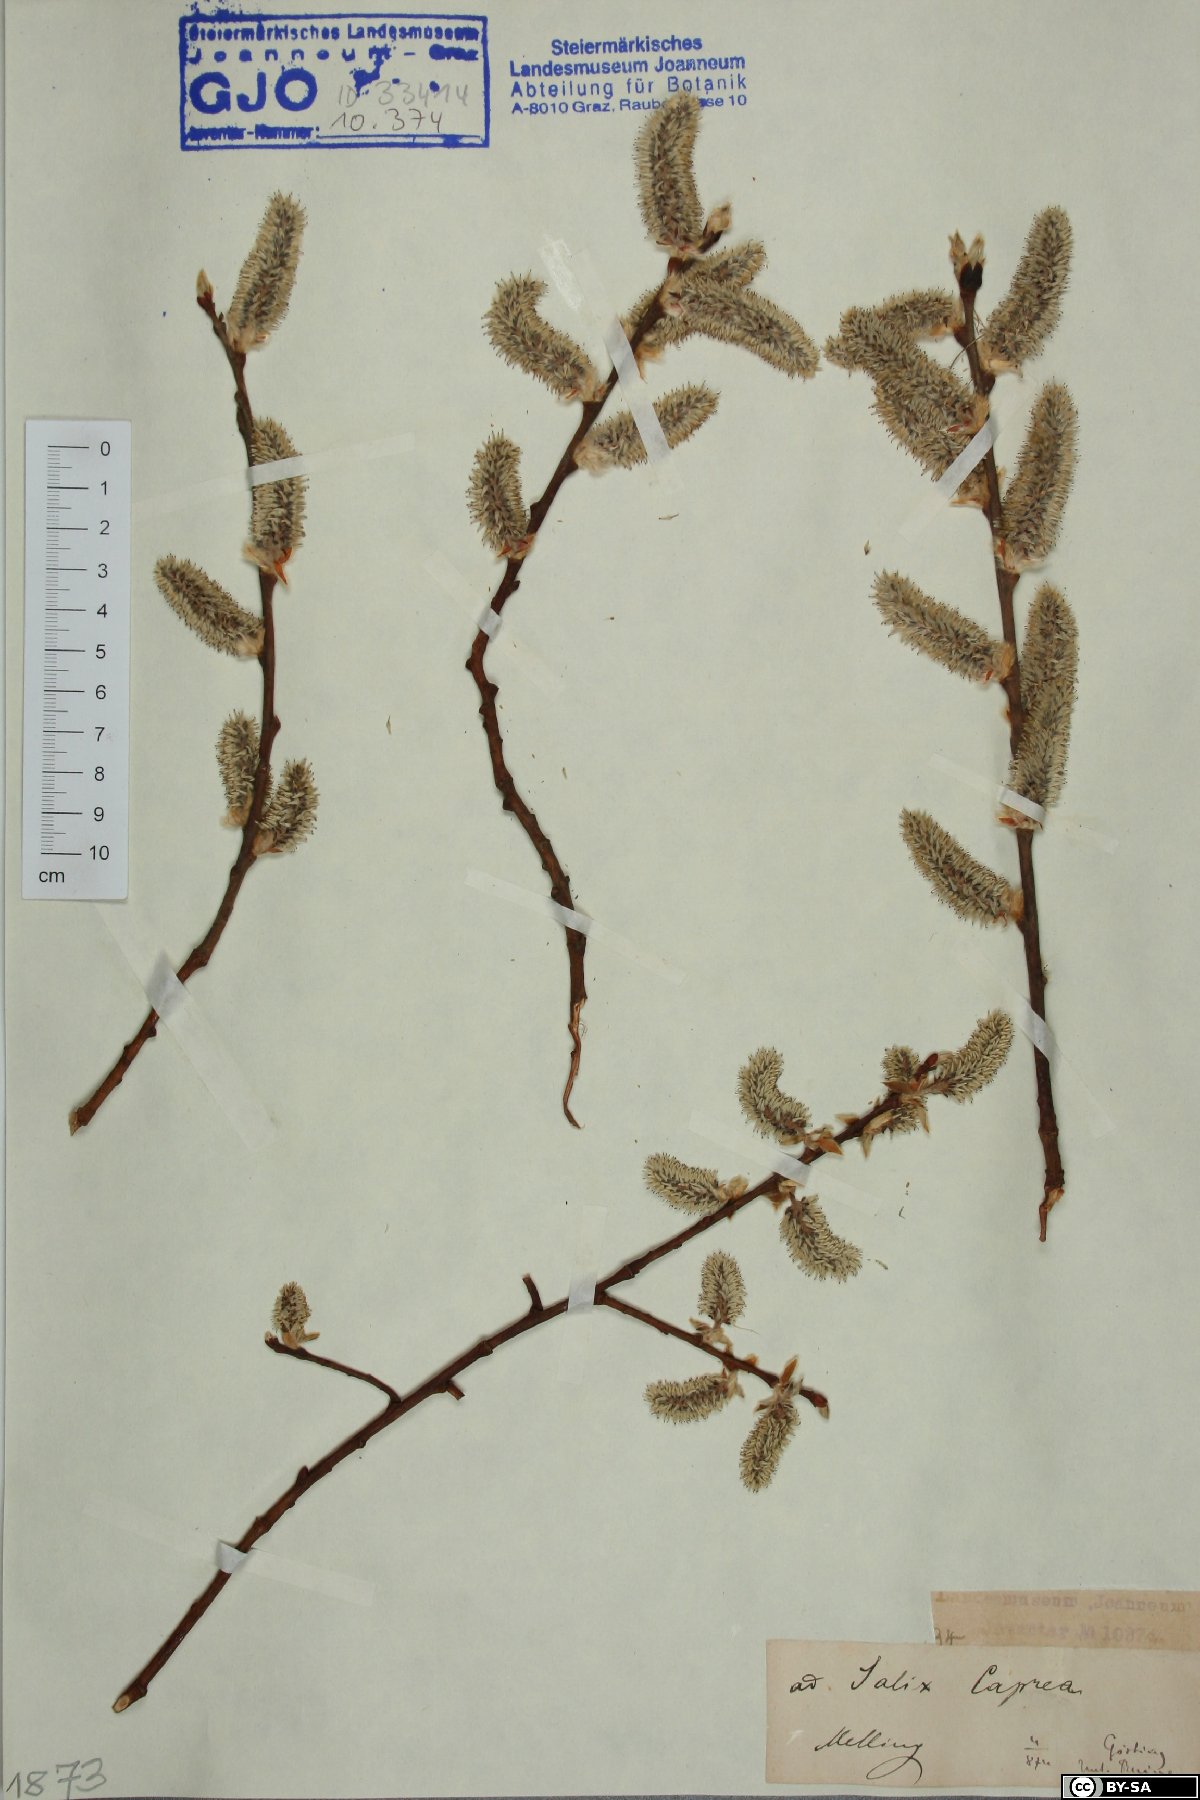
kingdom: Plantae
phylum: Tracheophyta
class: Magnoliopsida
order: Malpighiales
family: Salicaceae
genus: Salix
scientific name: Salix caprea
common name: Goat willow
